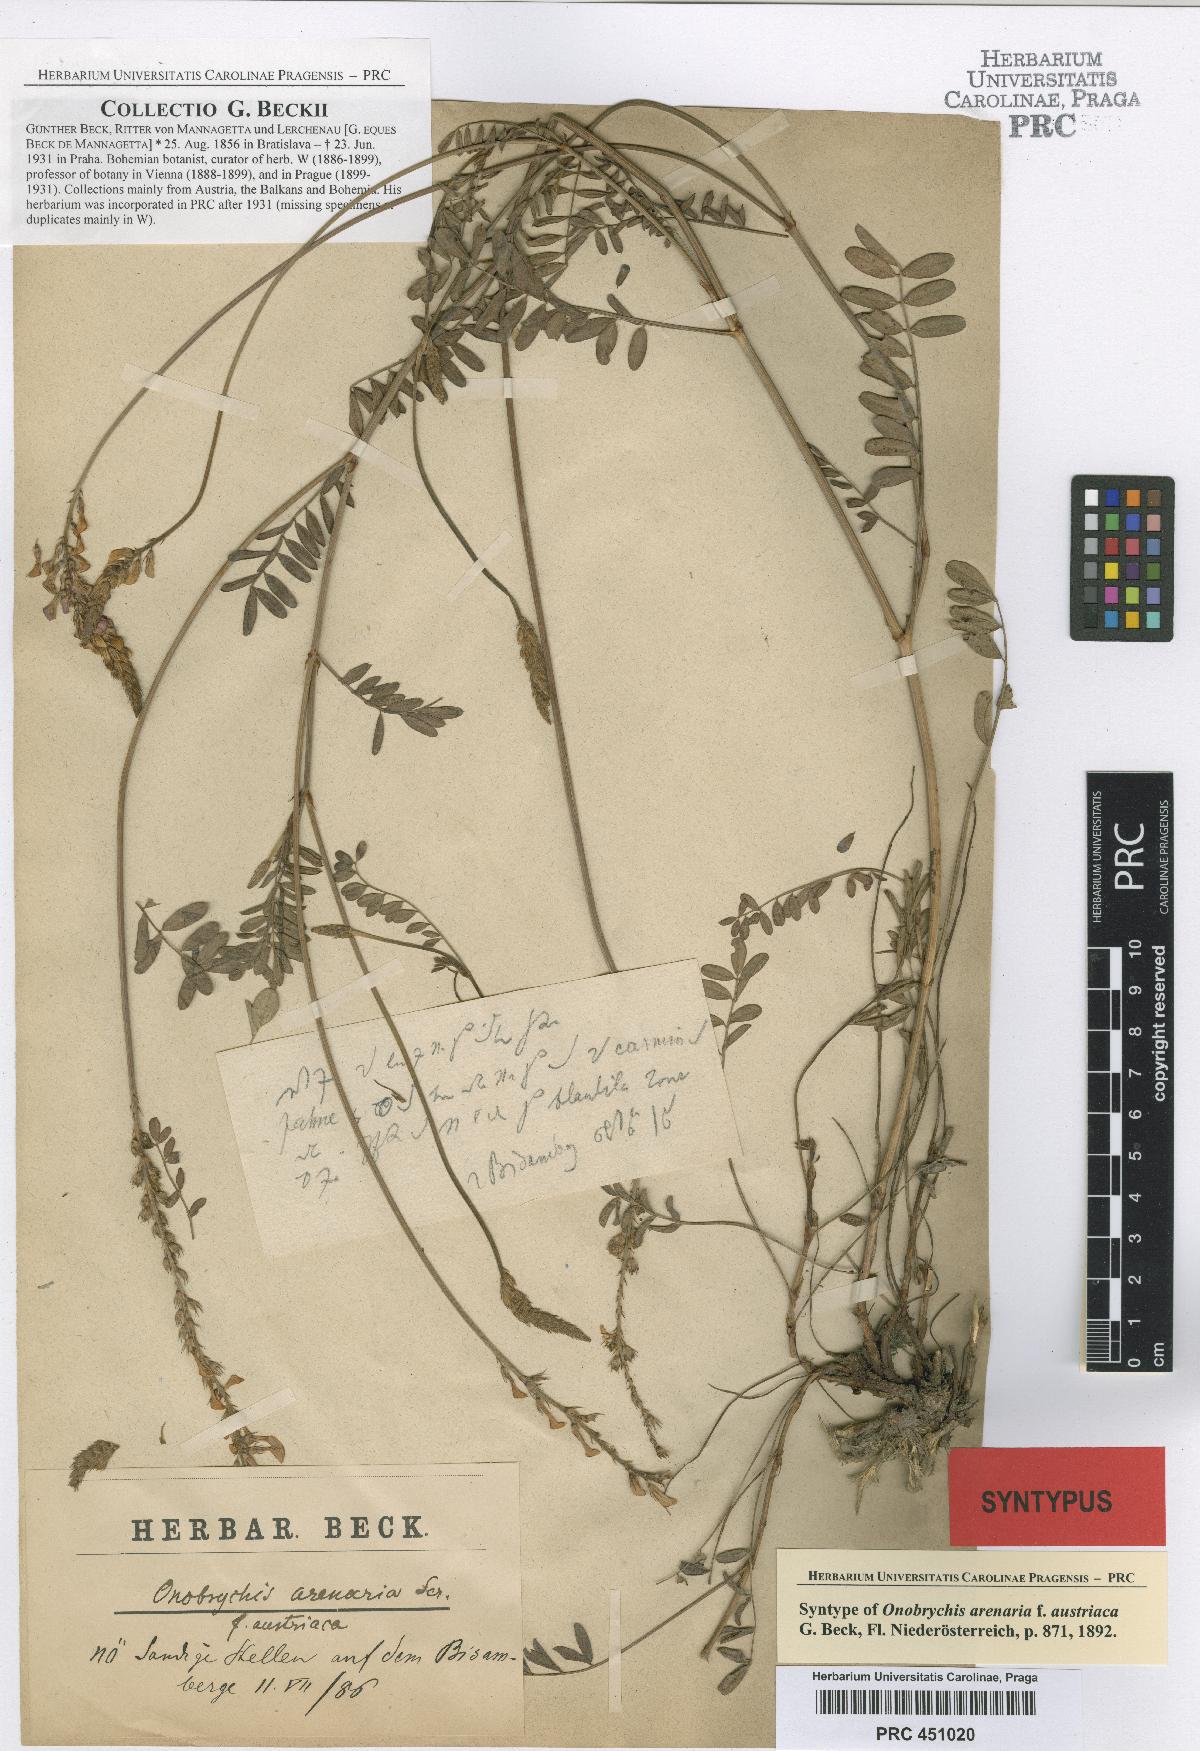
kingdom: Plantae
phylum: Tracheophyta
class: Magnoliopsida
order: Fabales
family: Fabaceae
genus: Onobrychis
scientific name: Onobrychis arenaria
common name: Sand esparcet
